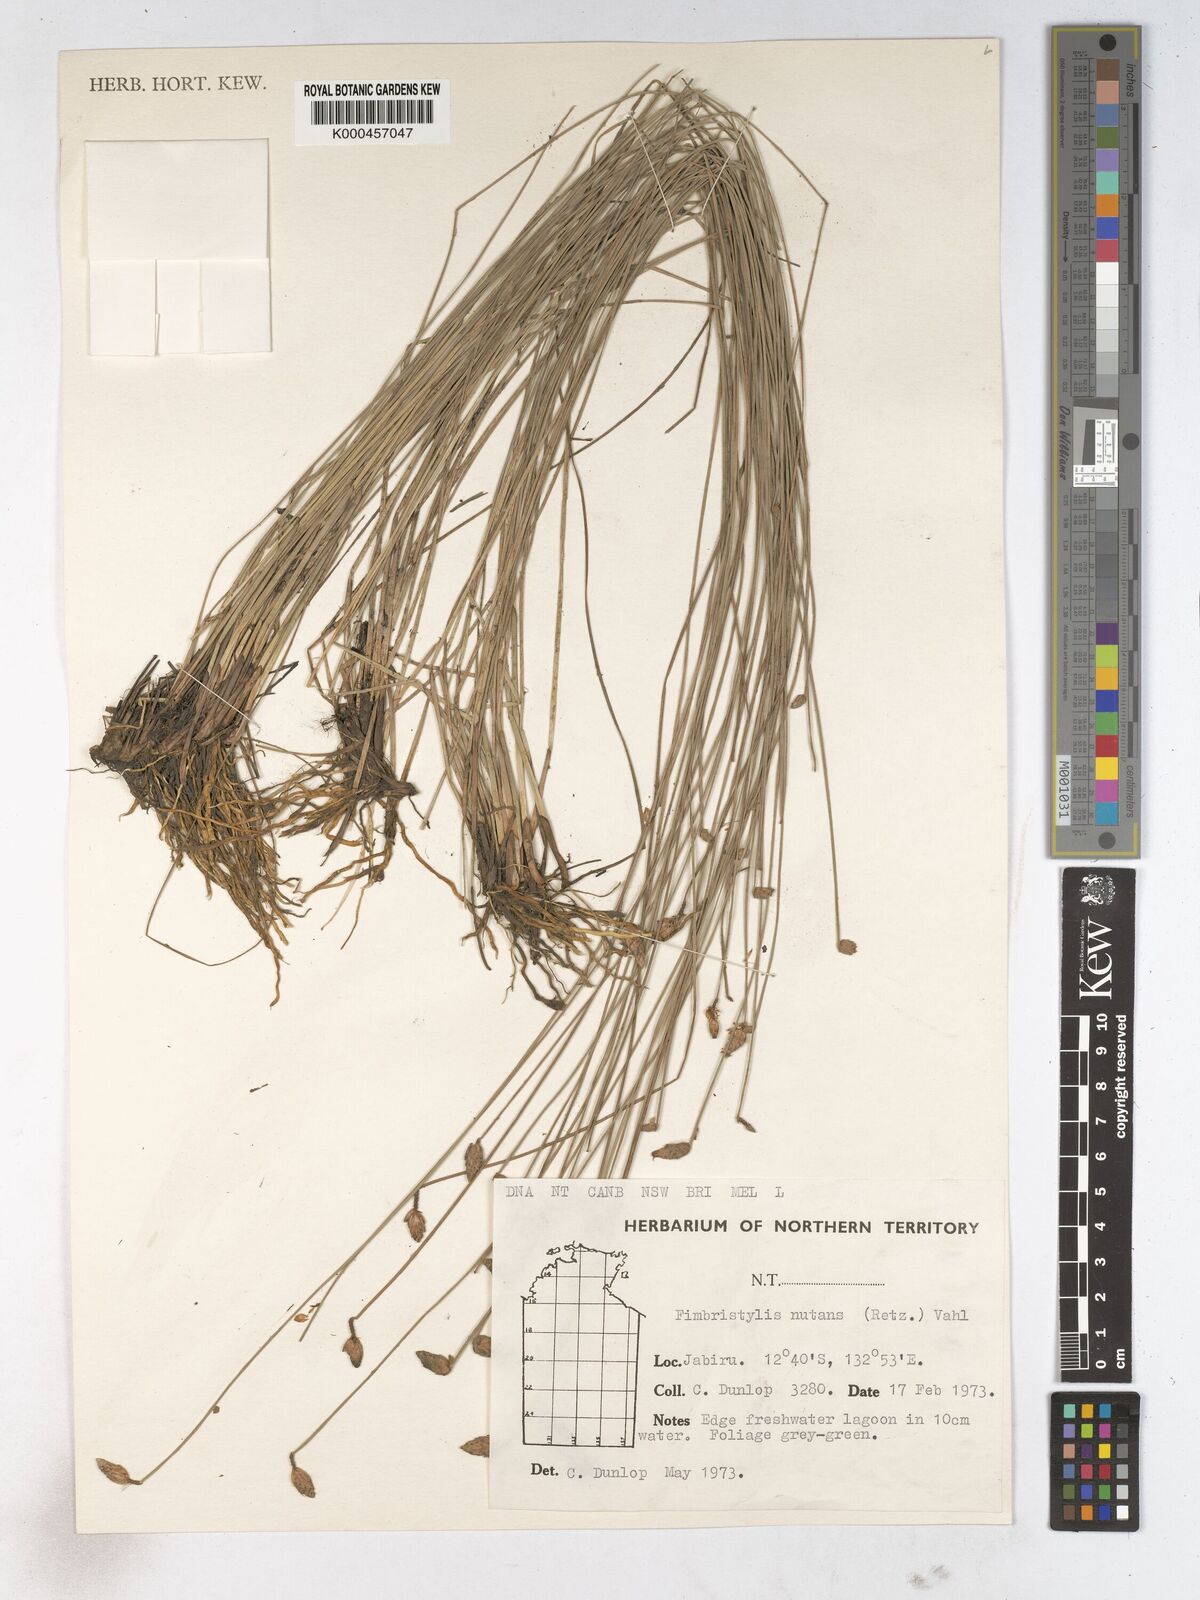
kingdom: Plantae
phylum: Tracheophyta
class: Liliopsida
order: Poales
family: Cyperaceae
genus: Fimbristylis
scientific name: Fimbristylis nutans
